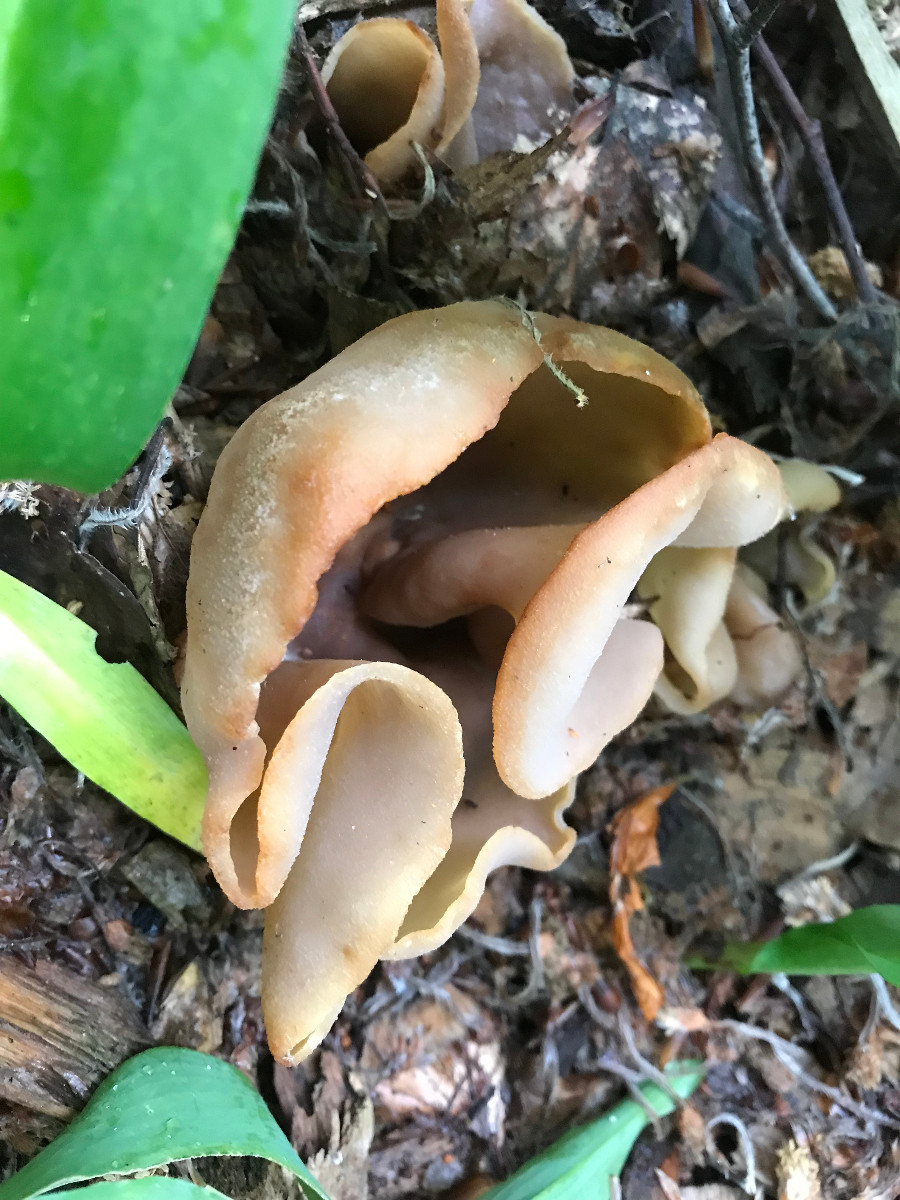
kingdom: Fungi
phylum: Ascomycota
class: Pezizomycetes
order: Pezizales
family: Pezizaceae
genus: Peziza
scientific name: Peziza
